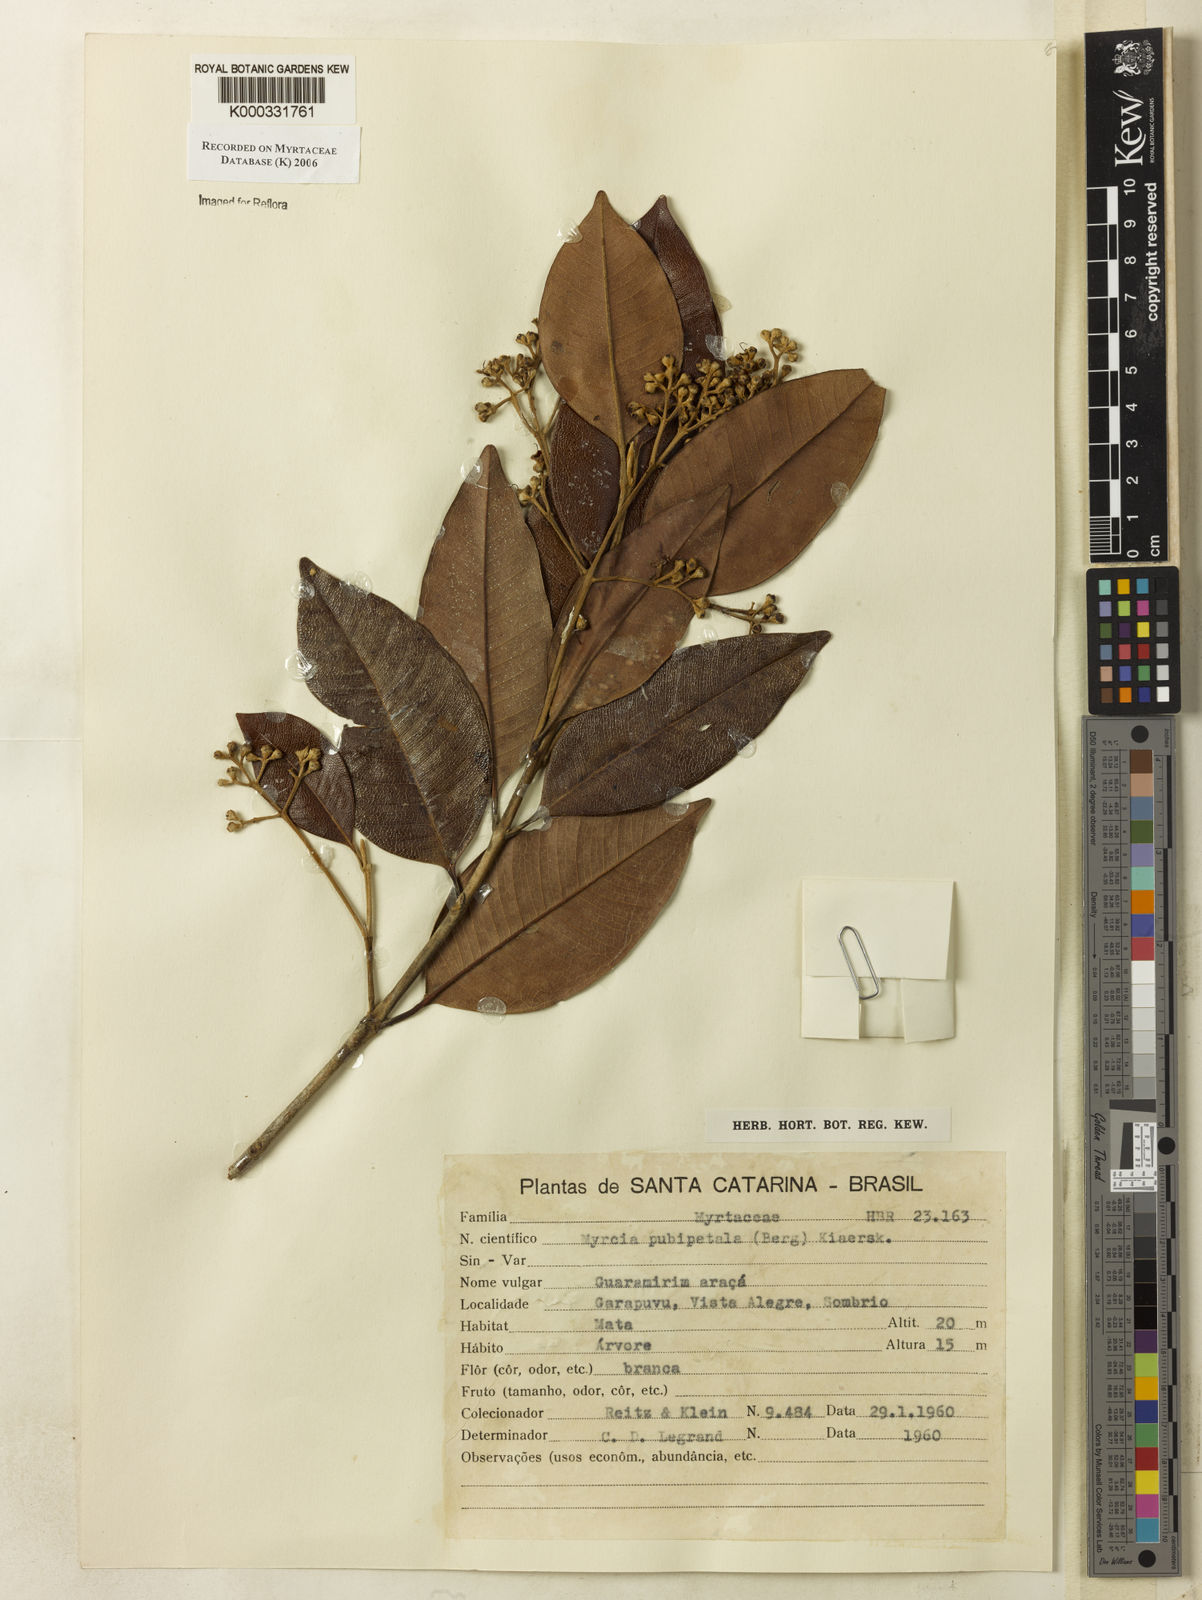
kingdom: Plantae
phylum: Tracheophyta
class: Magnoliopsida
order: Myrtales
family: Myrtaceae
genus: Myrcia
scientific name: Myrcia pubipetala
